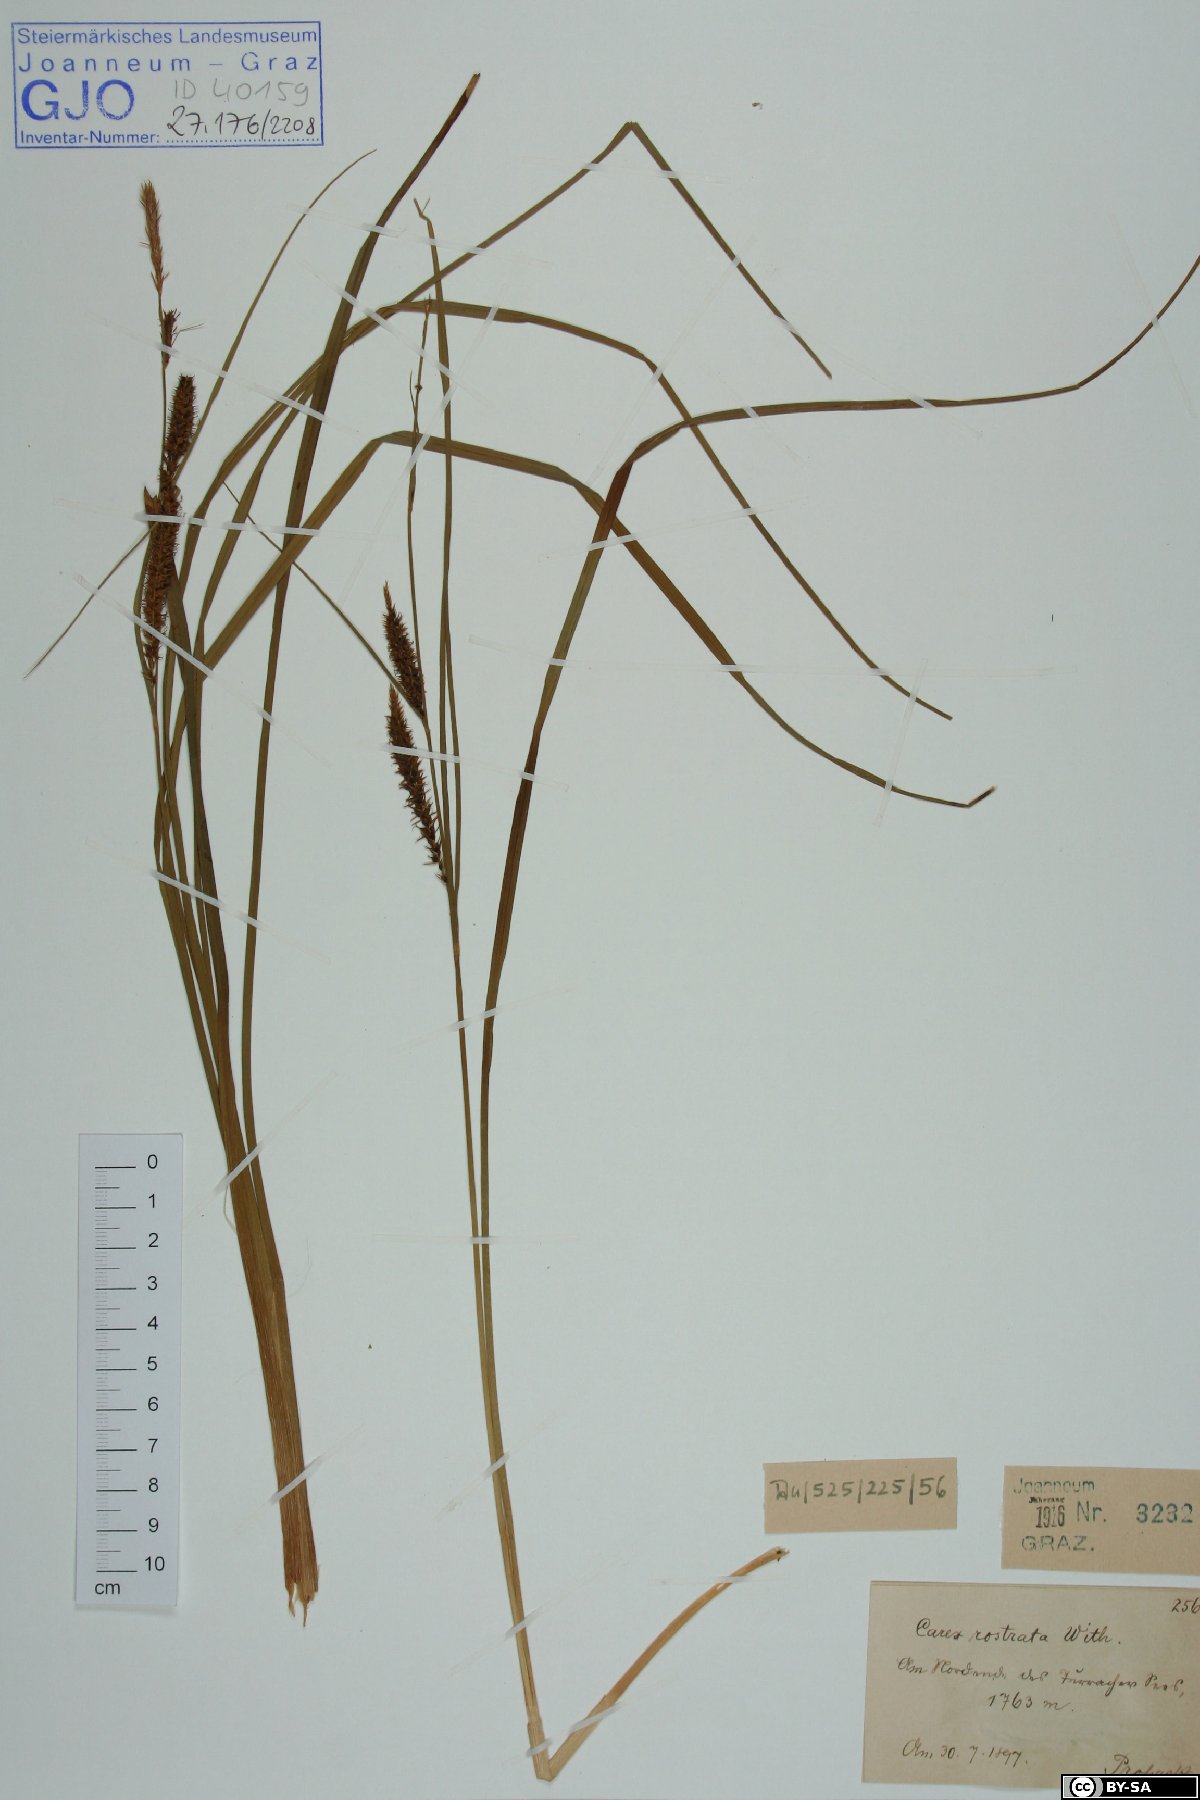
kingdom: Plantae
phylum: Tracheophyta
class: Liliopsida
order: Poales
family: Cyperaceae
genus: Carex
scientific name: Carex rostrata
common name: Bottle sedge
